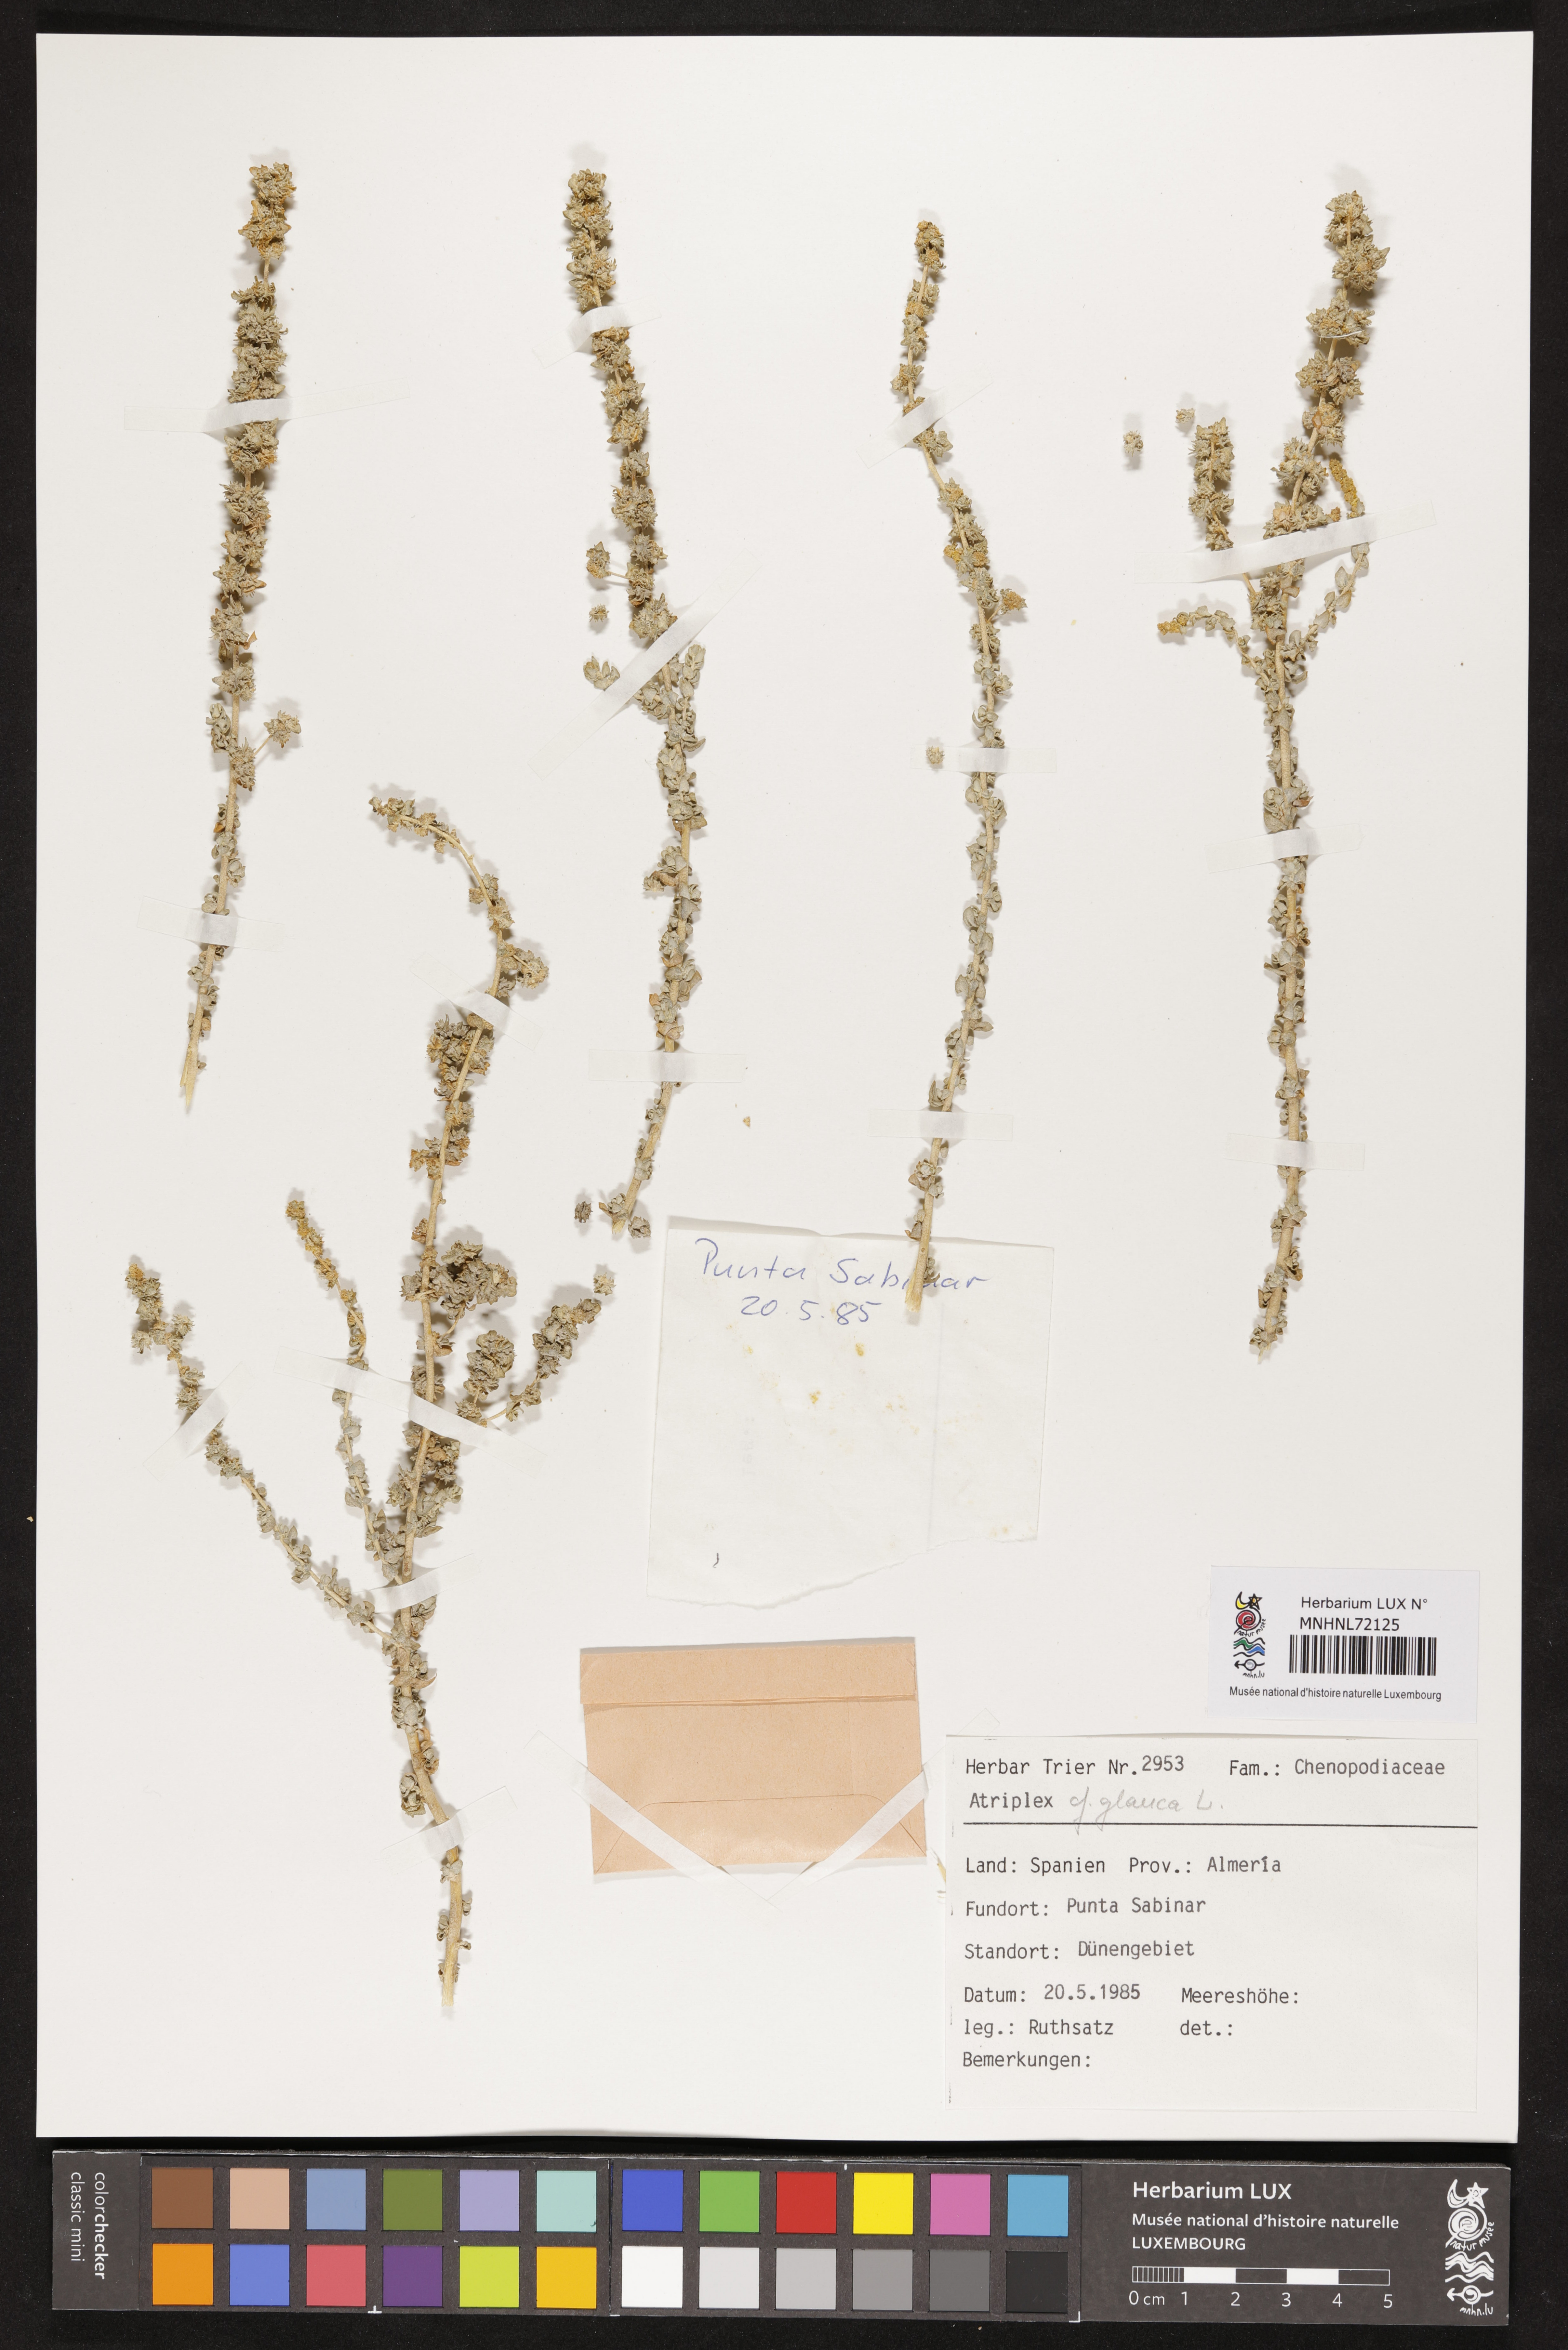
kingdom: Plantae
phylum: Tracheophyta
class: Magnoliopsida
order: Caryophyllales
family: Amaranthaceae
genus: Atriplex
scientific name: Atriplex glauca
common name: Waxy saltbush
